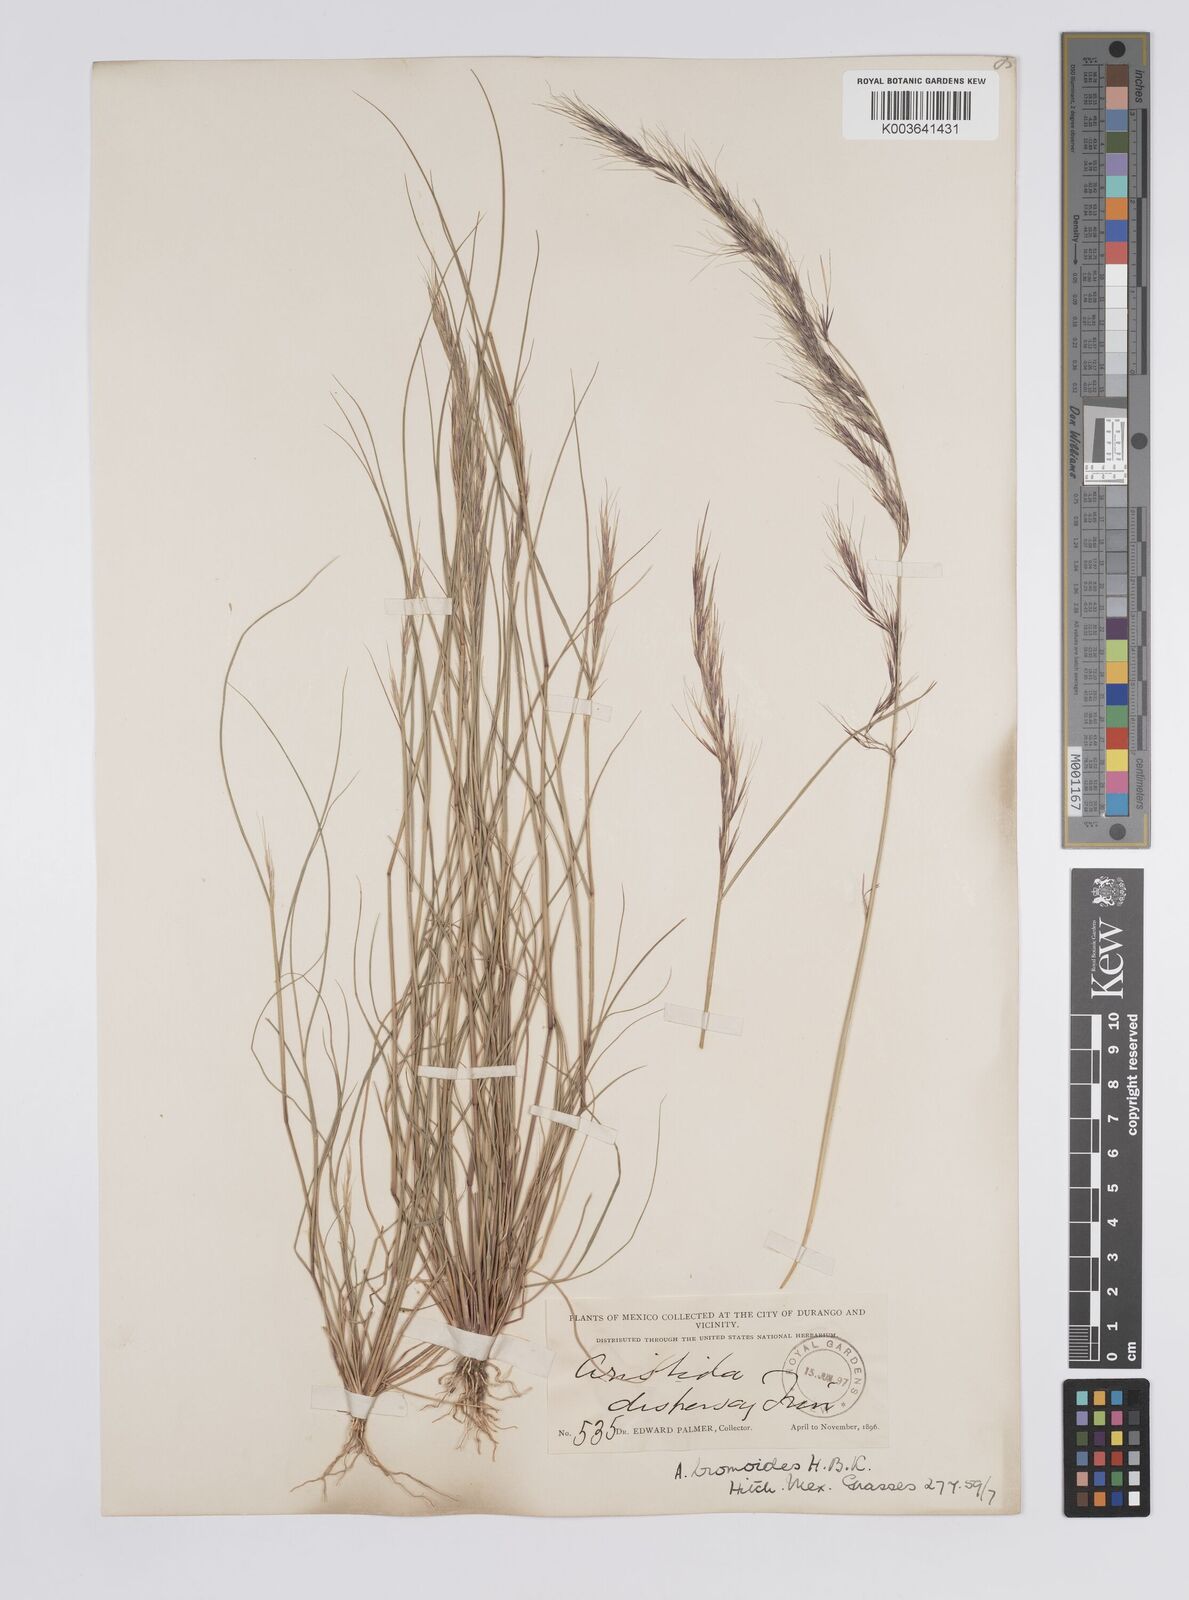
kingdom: Plantae
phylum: Tracheophyta
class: Liliopsida
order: Poales
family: Poaceae
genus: Aristida
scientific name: Aristida adscensionis
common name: Sixweeks threeawn
